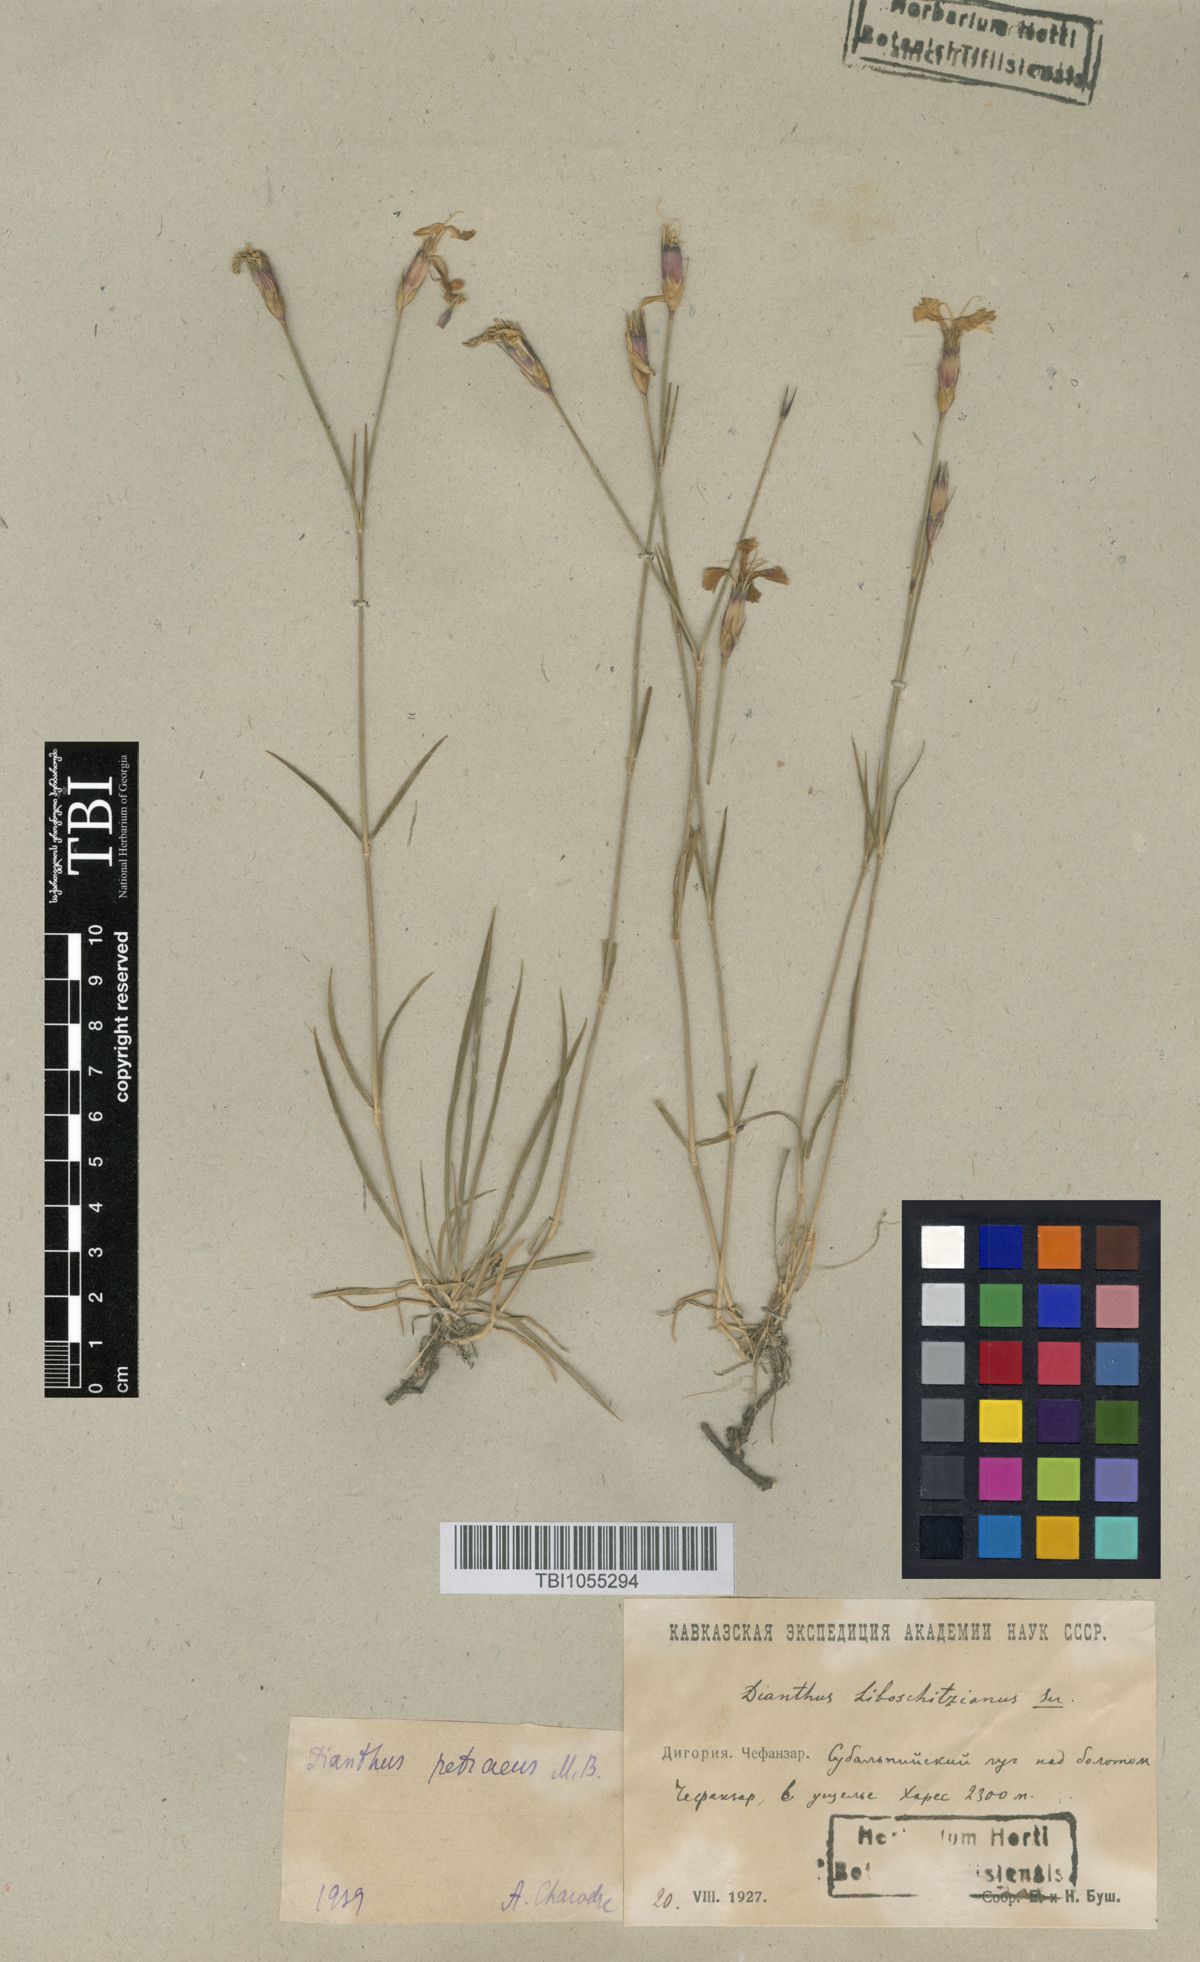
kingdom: Plantae
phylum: Tracheophyta
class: Magnoliopsida
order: Caryophyllales
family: Caryophyllaceae
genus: Dianthus
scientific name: Dianthus cretaceus
